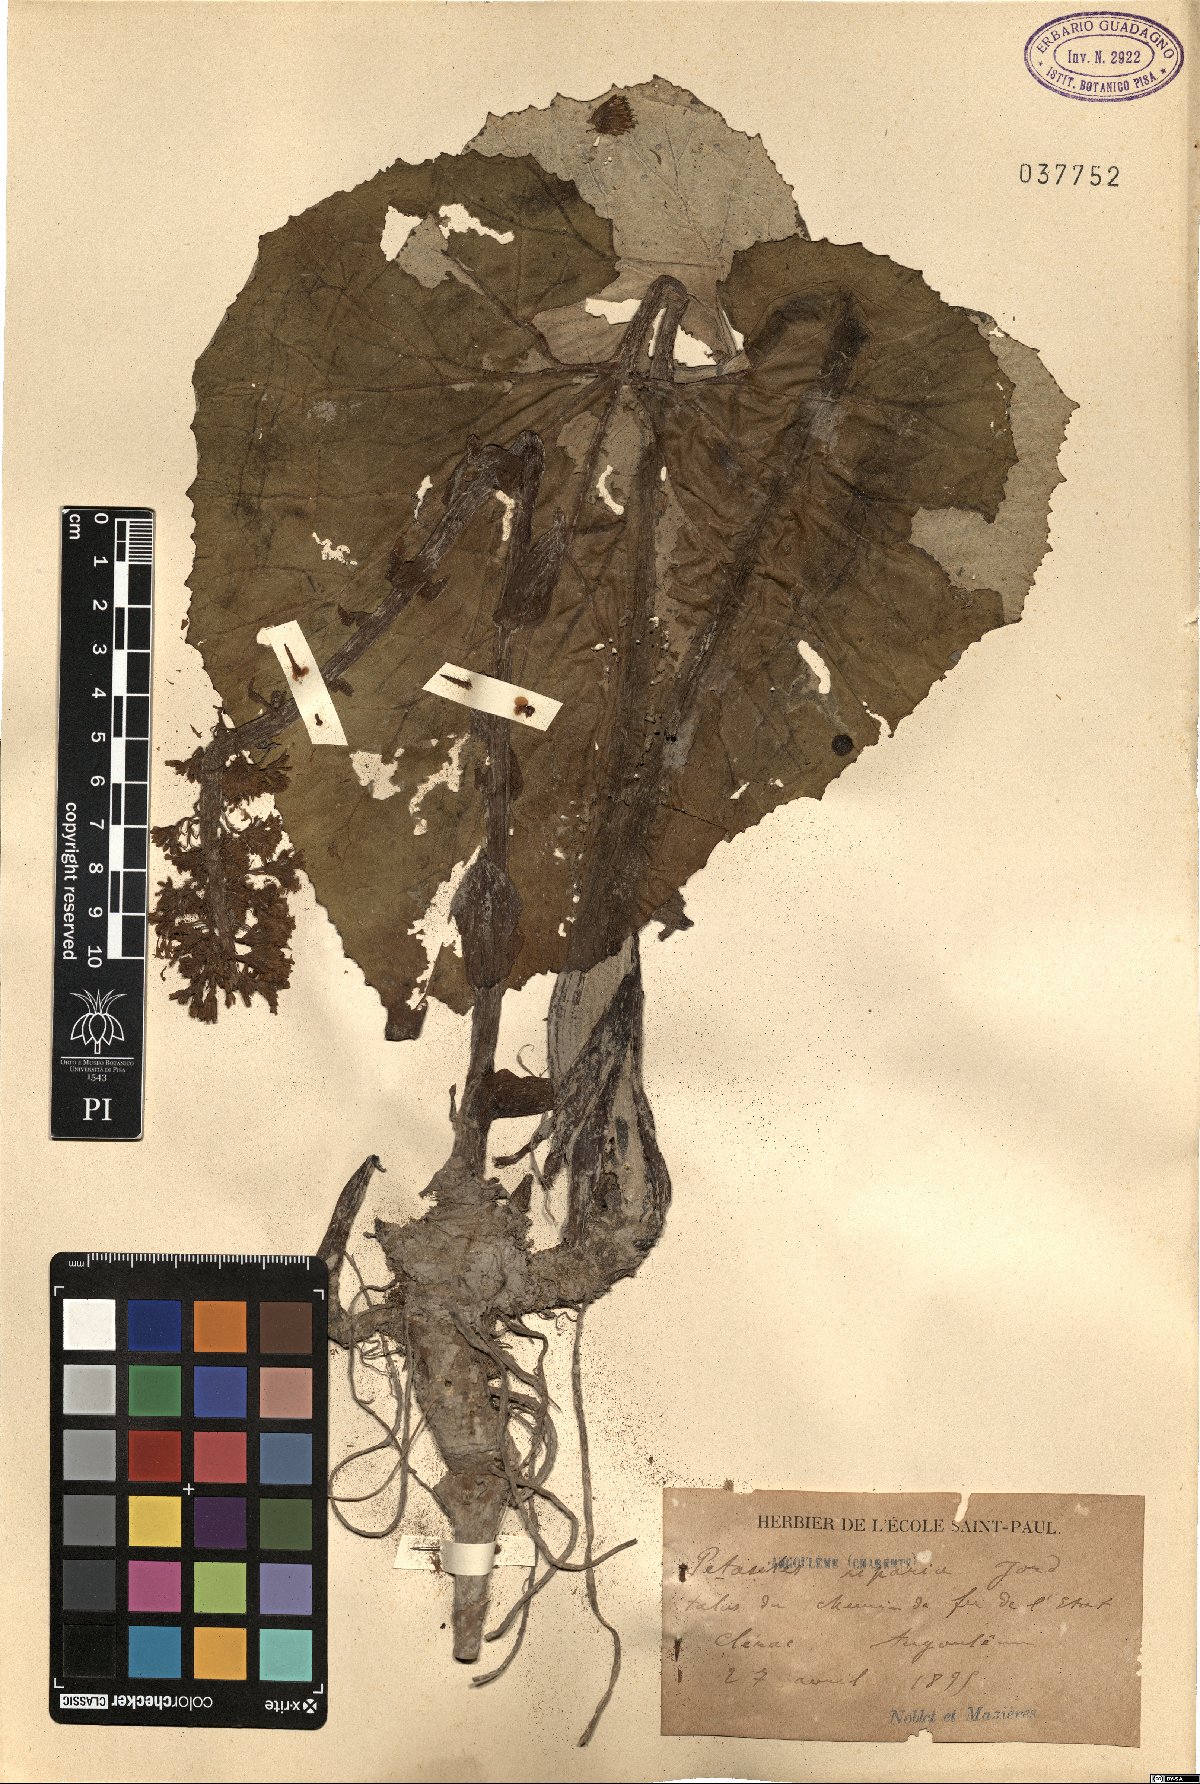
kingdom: Plantae
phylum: Tracheophyta
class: Magnoliopsida
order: Asterales
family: Asteraceae
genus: Petasites
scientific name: Petasites hybridus
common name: Butterbur
